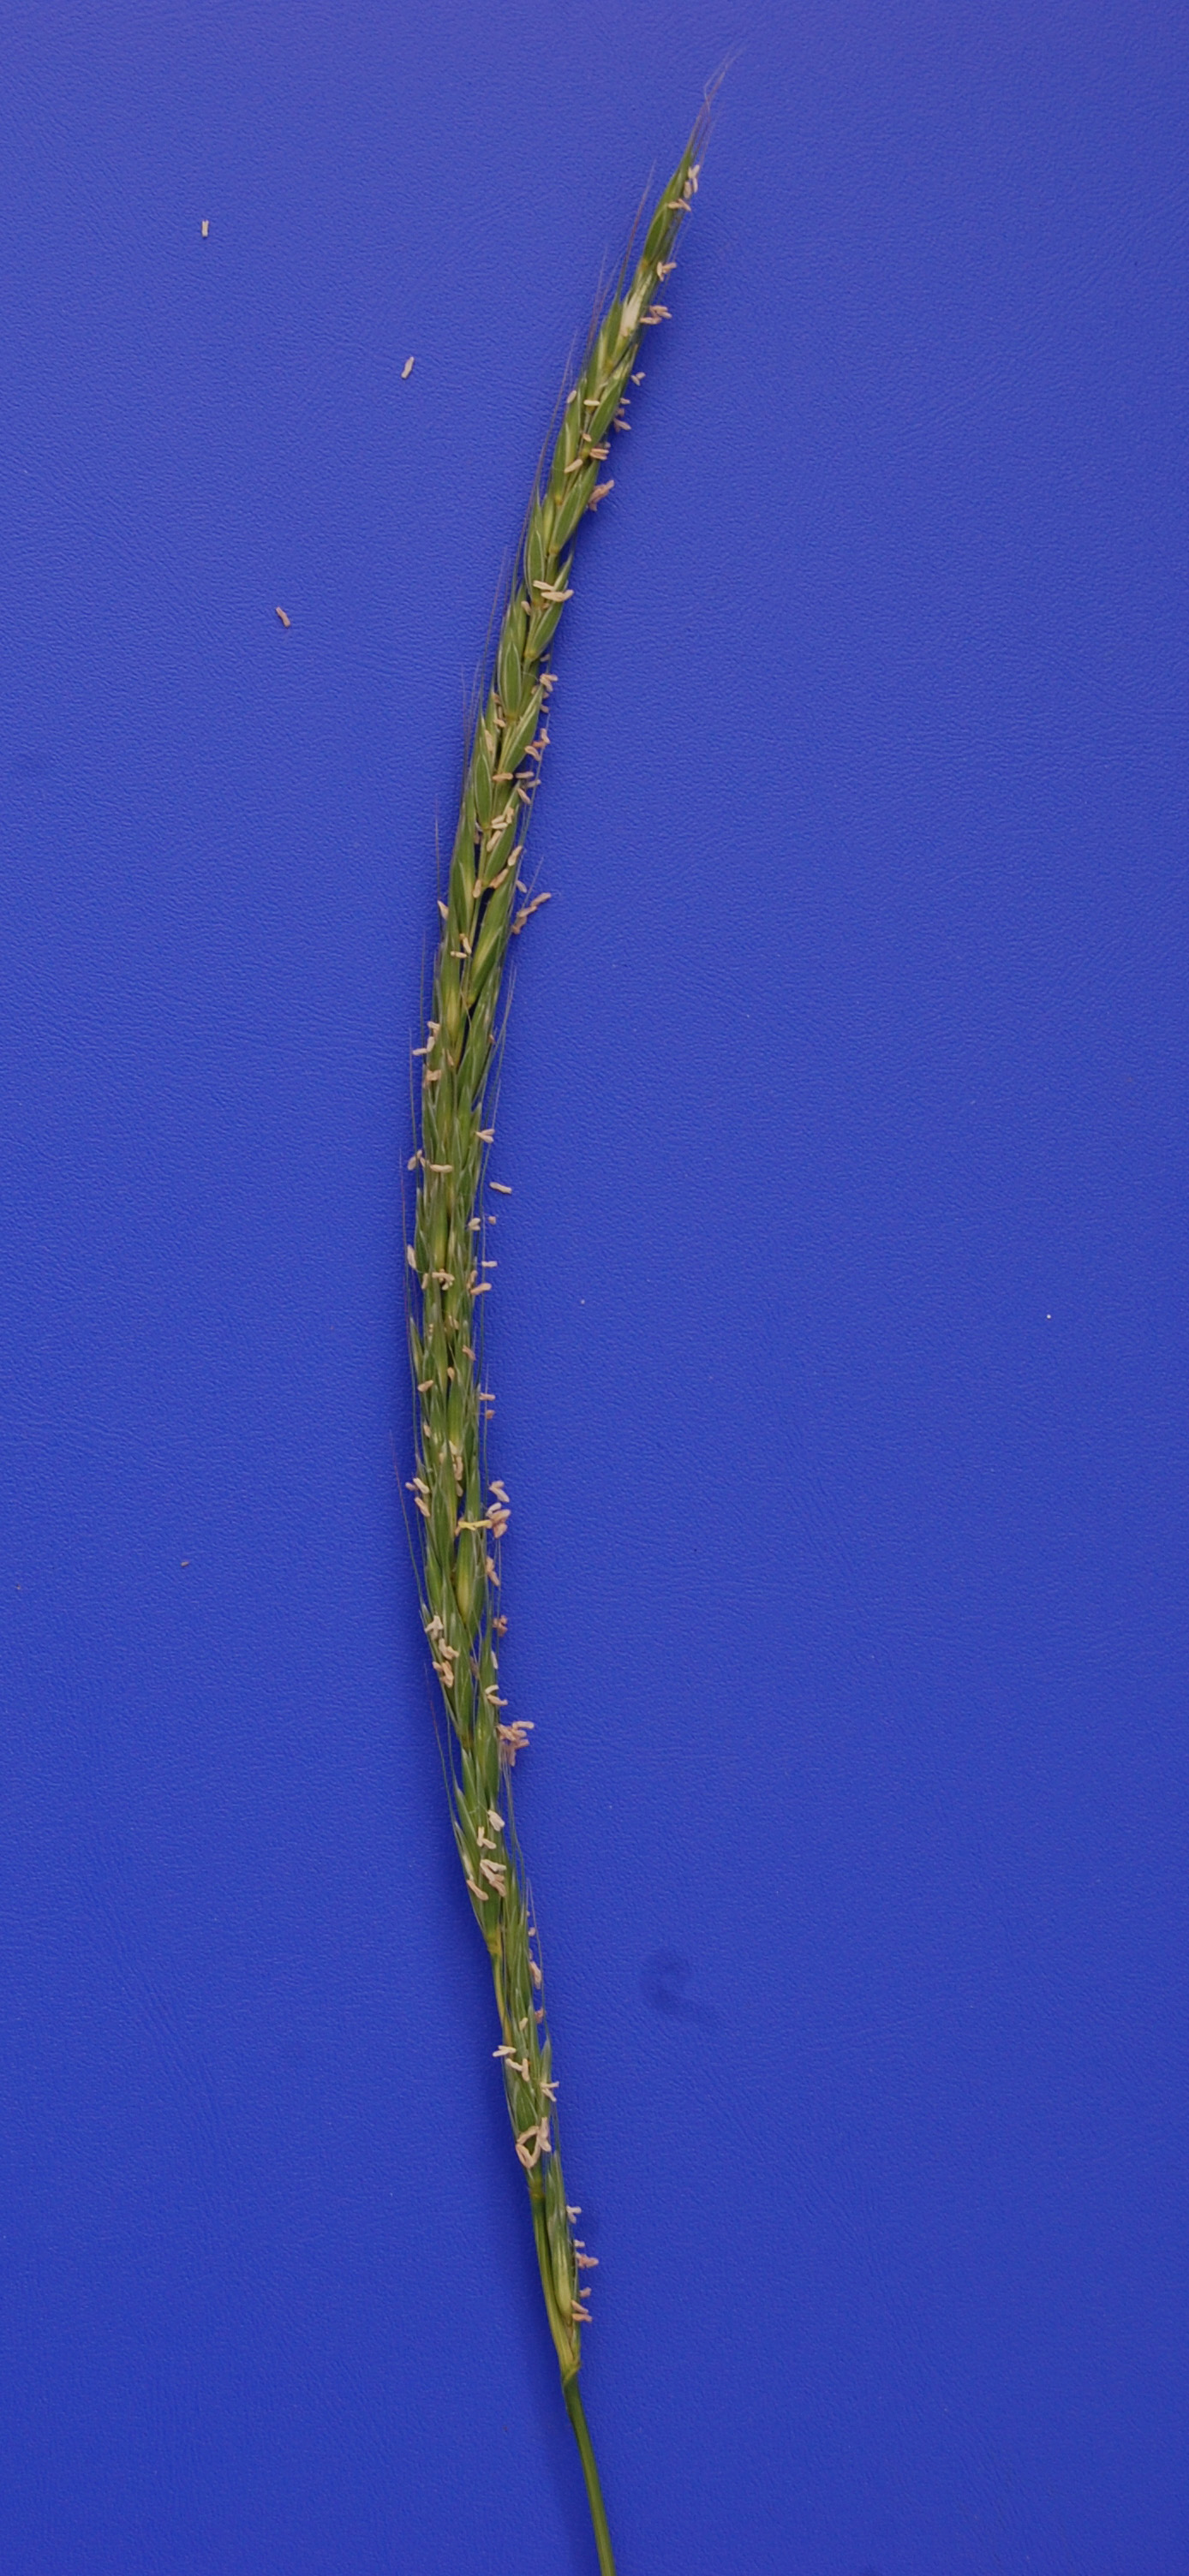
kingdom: Plantae
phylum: Tracheophyta
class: Liliopsida
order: Poales
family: Poaceae
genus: Elymus
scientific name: Elymus caninus
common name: Bearded couch
